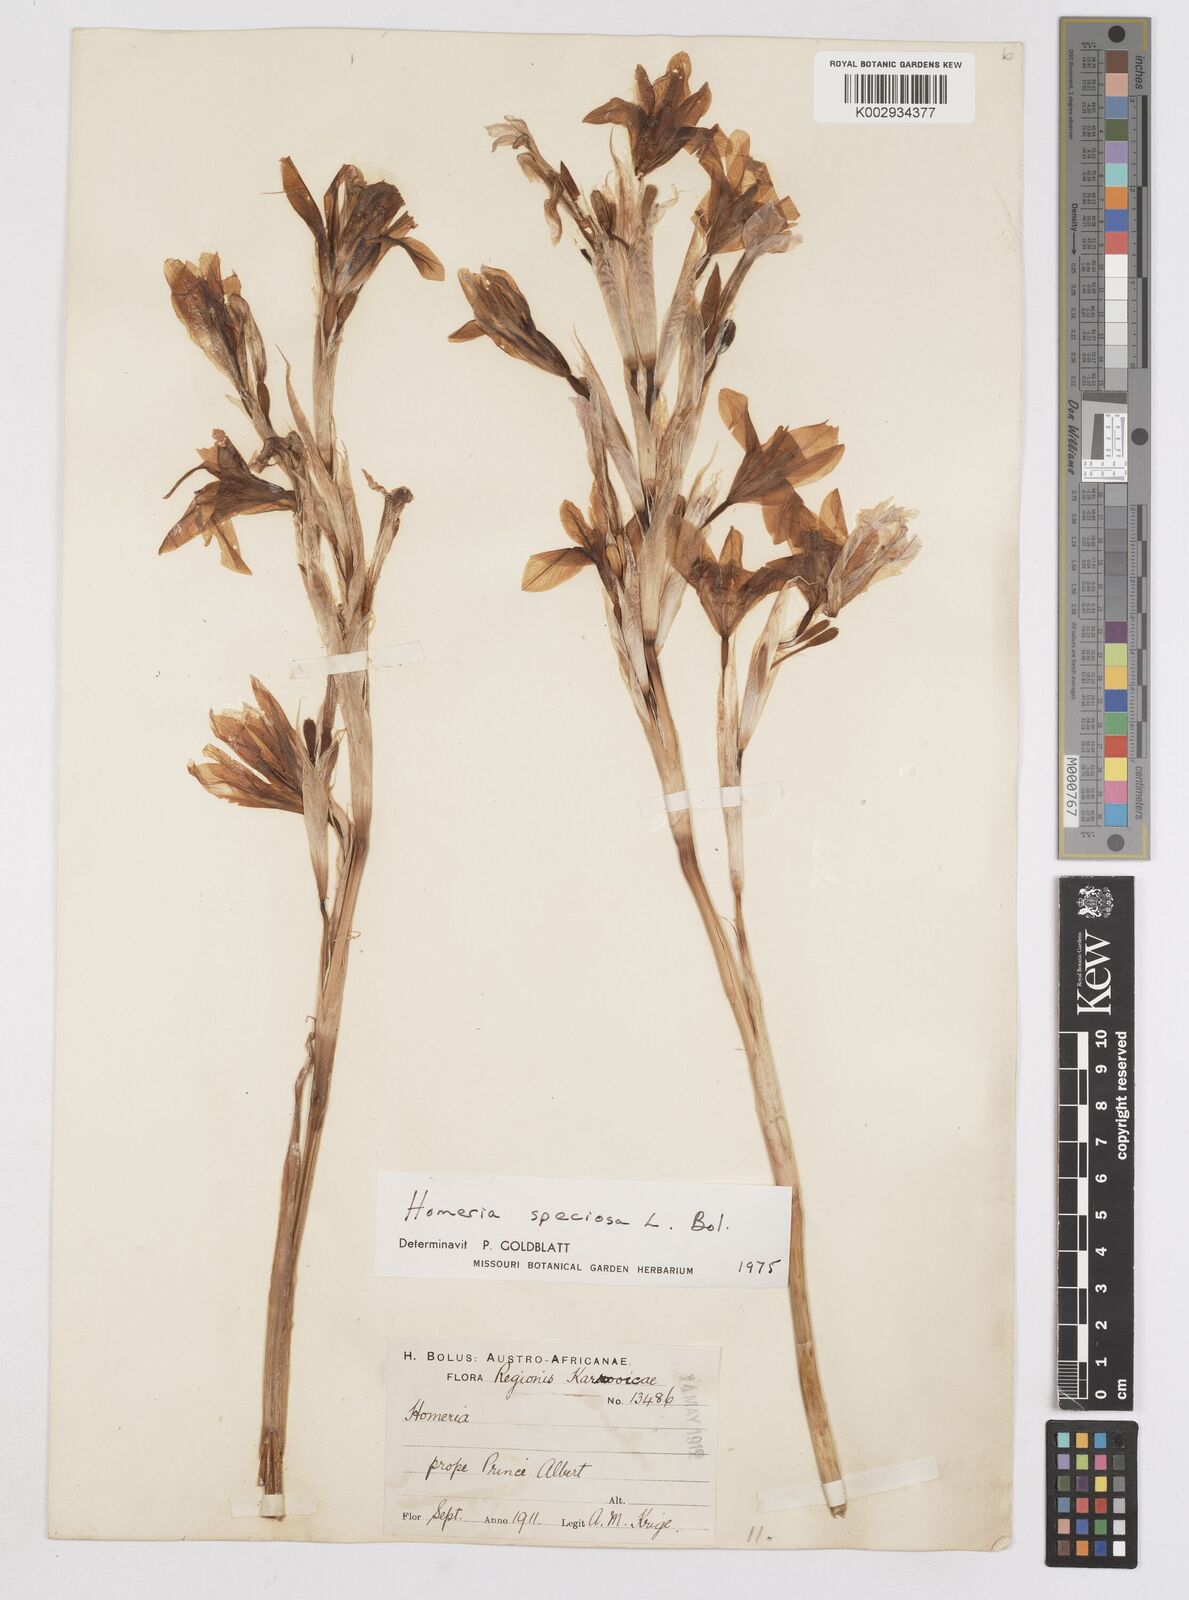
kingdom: Plantae
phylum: Tracheophyta
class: Liliopsida
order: Asparagales
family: Iridaceae
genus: Moraea
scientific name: Moraea speciosa
